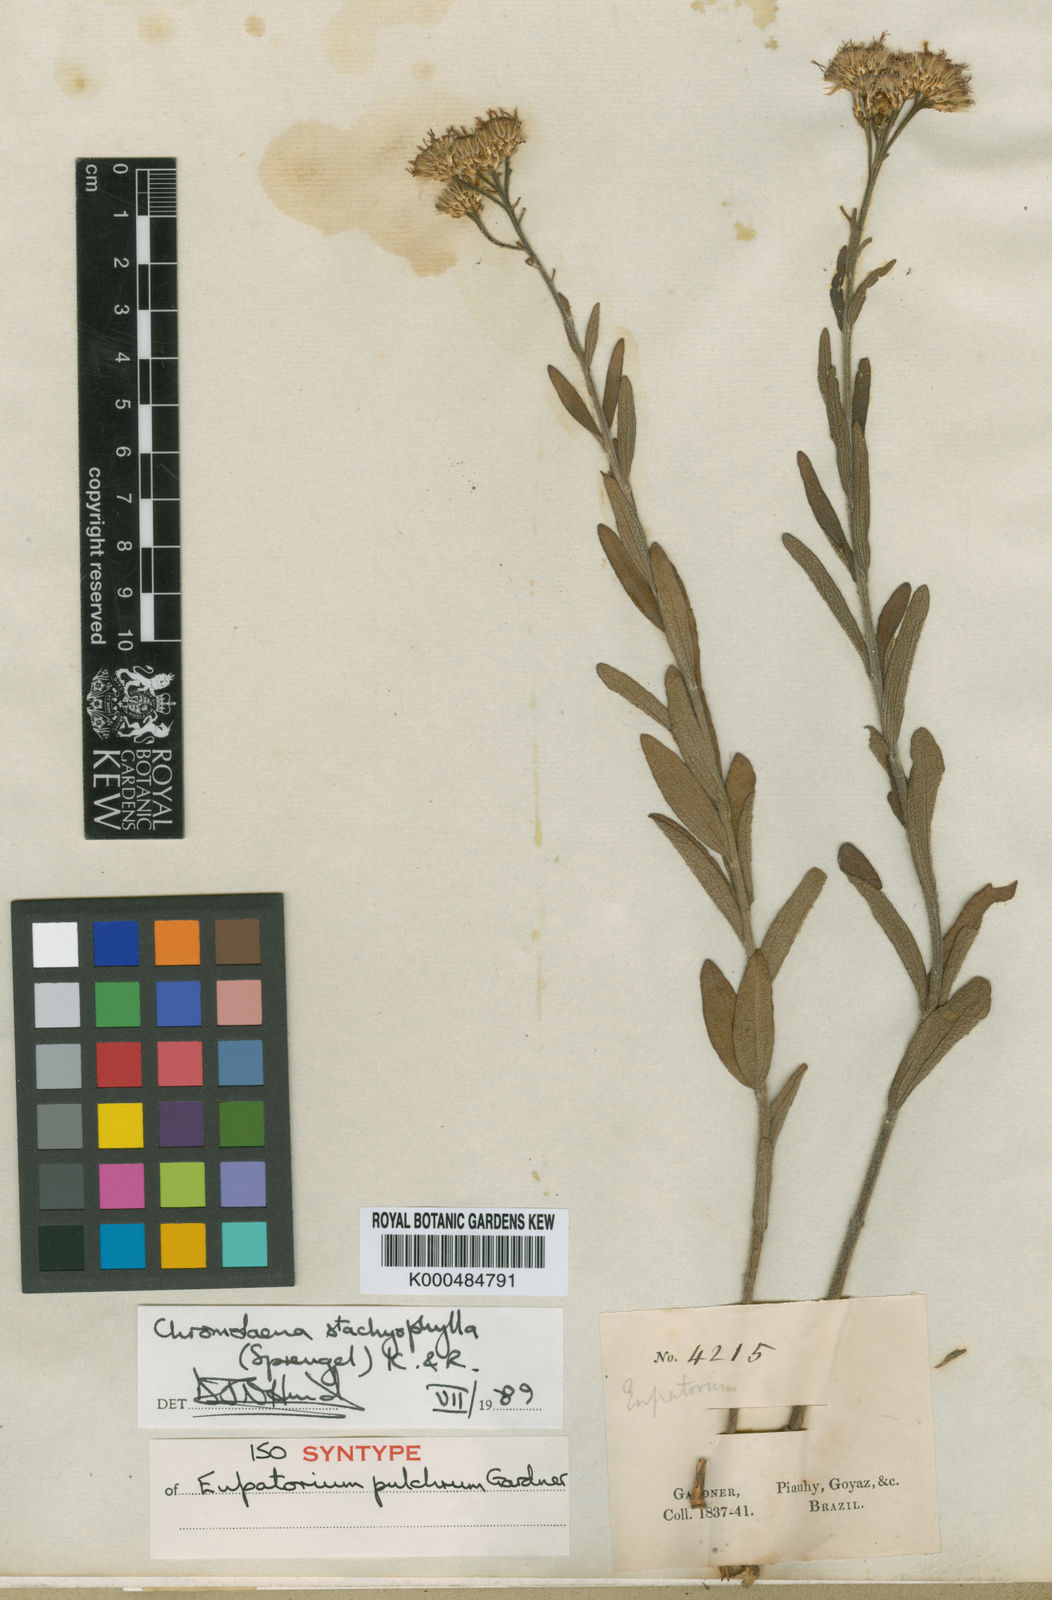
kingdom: Plantae
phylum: Tracheophyta
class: Magnoliopsida
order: Asterales
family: Asteraceae
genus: Chromolaena
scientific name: Chromolaena stachyophylla
